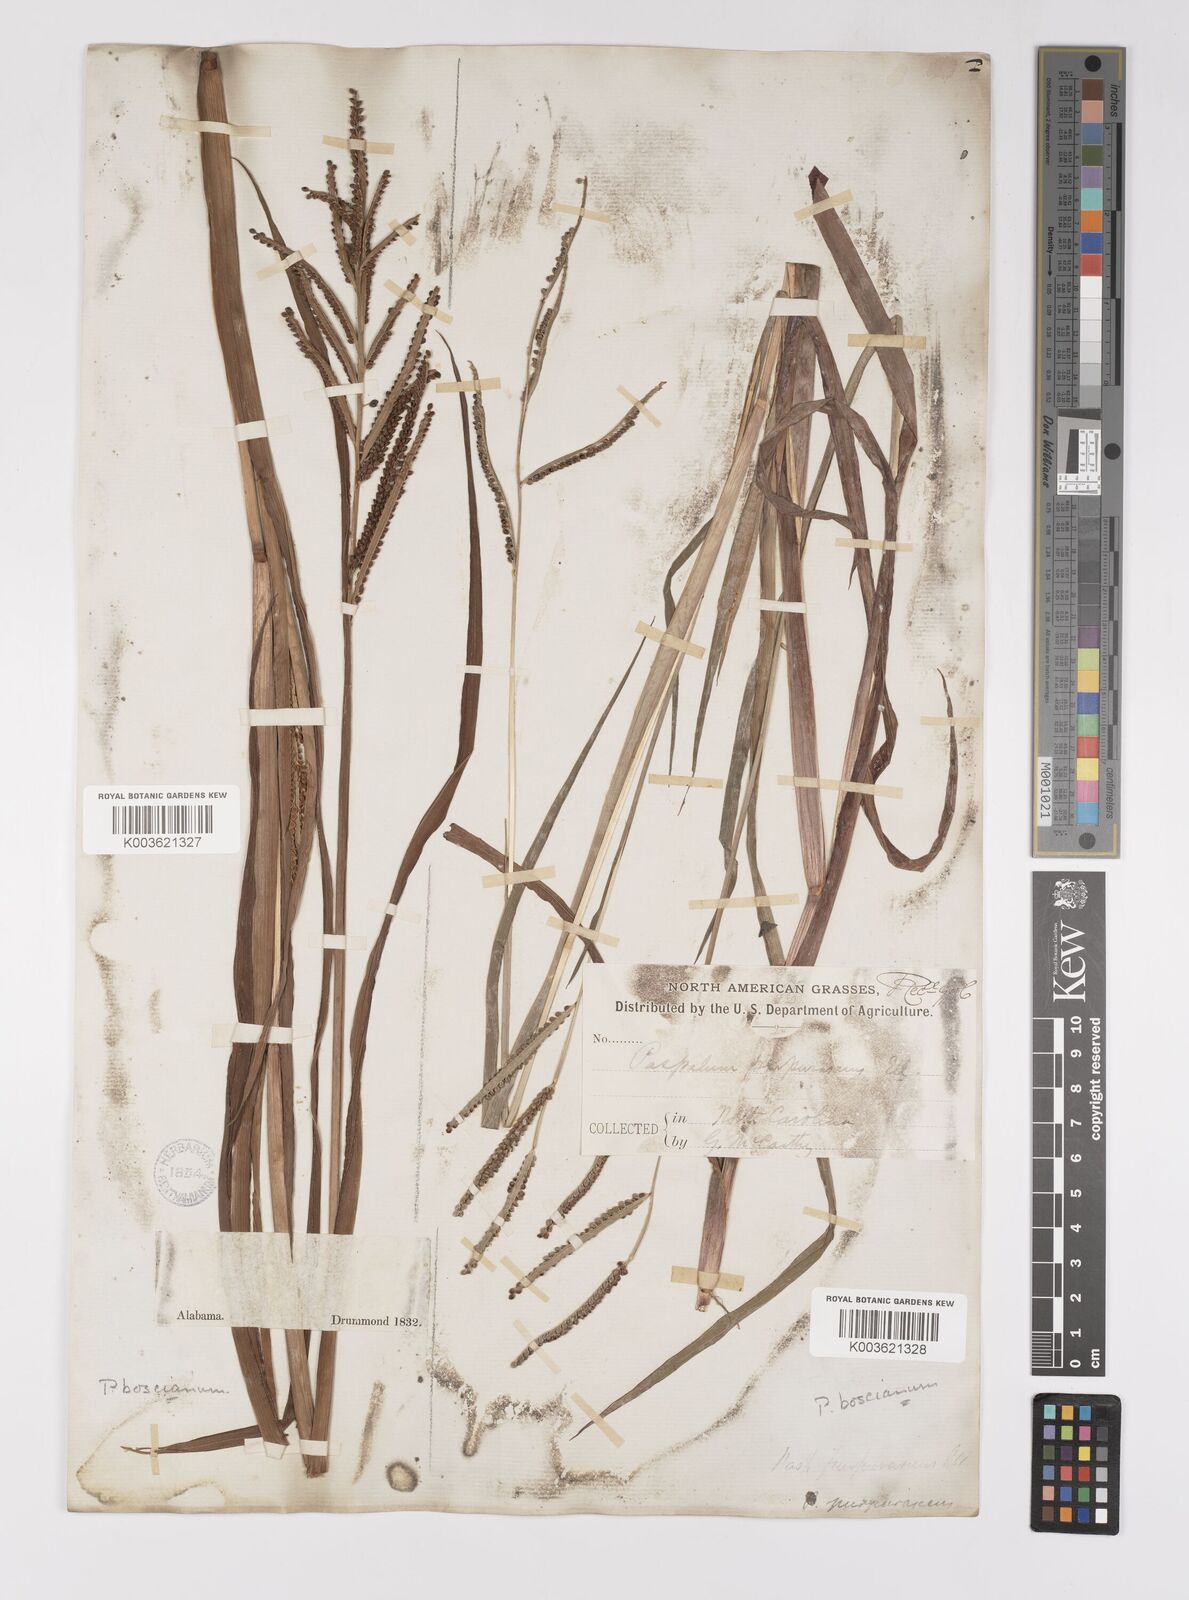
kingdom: Plantae
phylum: Tracheophyta
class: Liliopsida
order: Poales
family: Poaceae
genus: Paspalum
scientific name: Paspalum scrobiculatum
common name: Kodo millet
